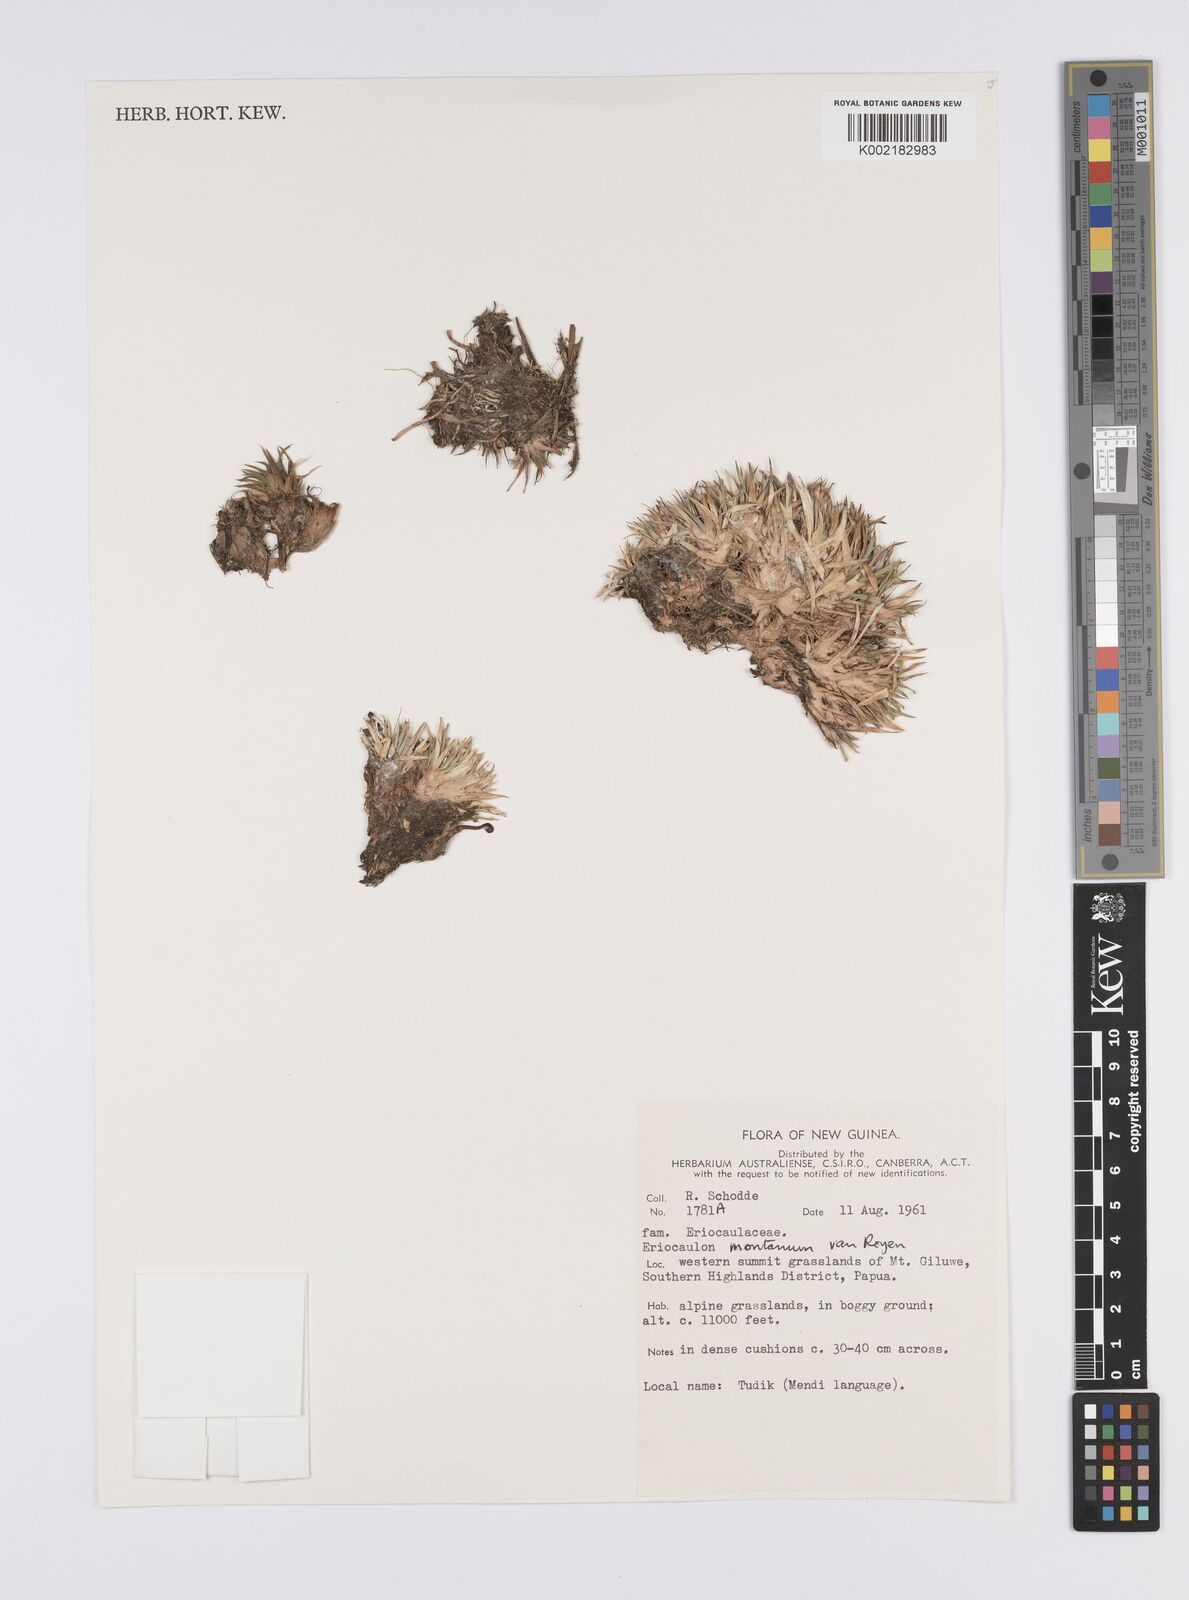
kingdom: Plantae
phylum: Tracheophyta
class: Liliopsida
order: Poales
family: Eriocaulaceae
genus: Eriocaulon
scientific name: Eriocaulon montanum
